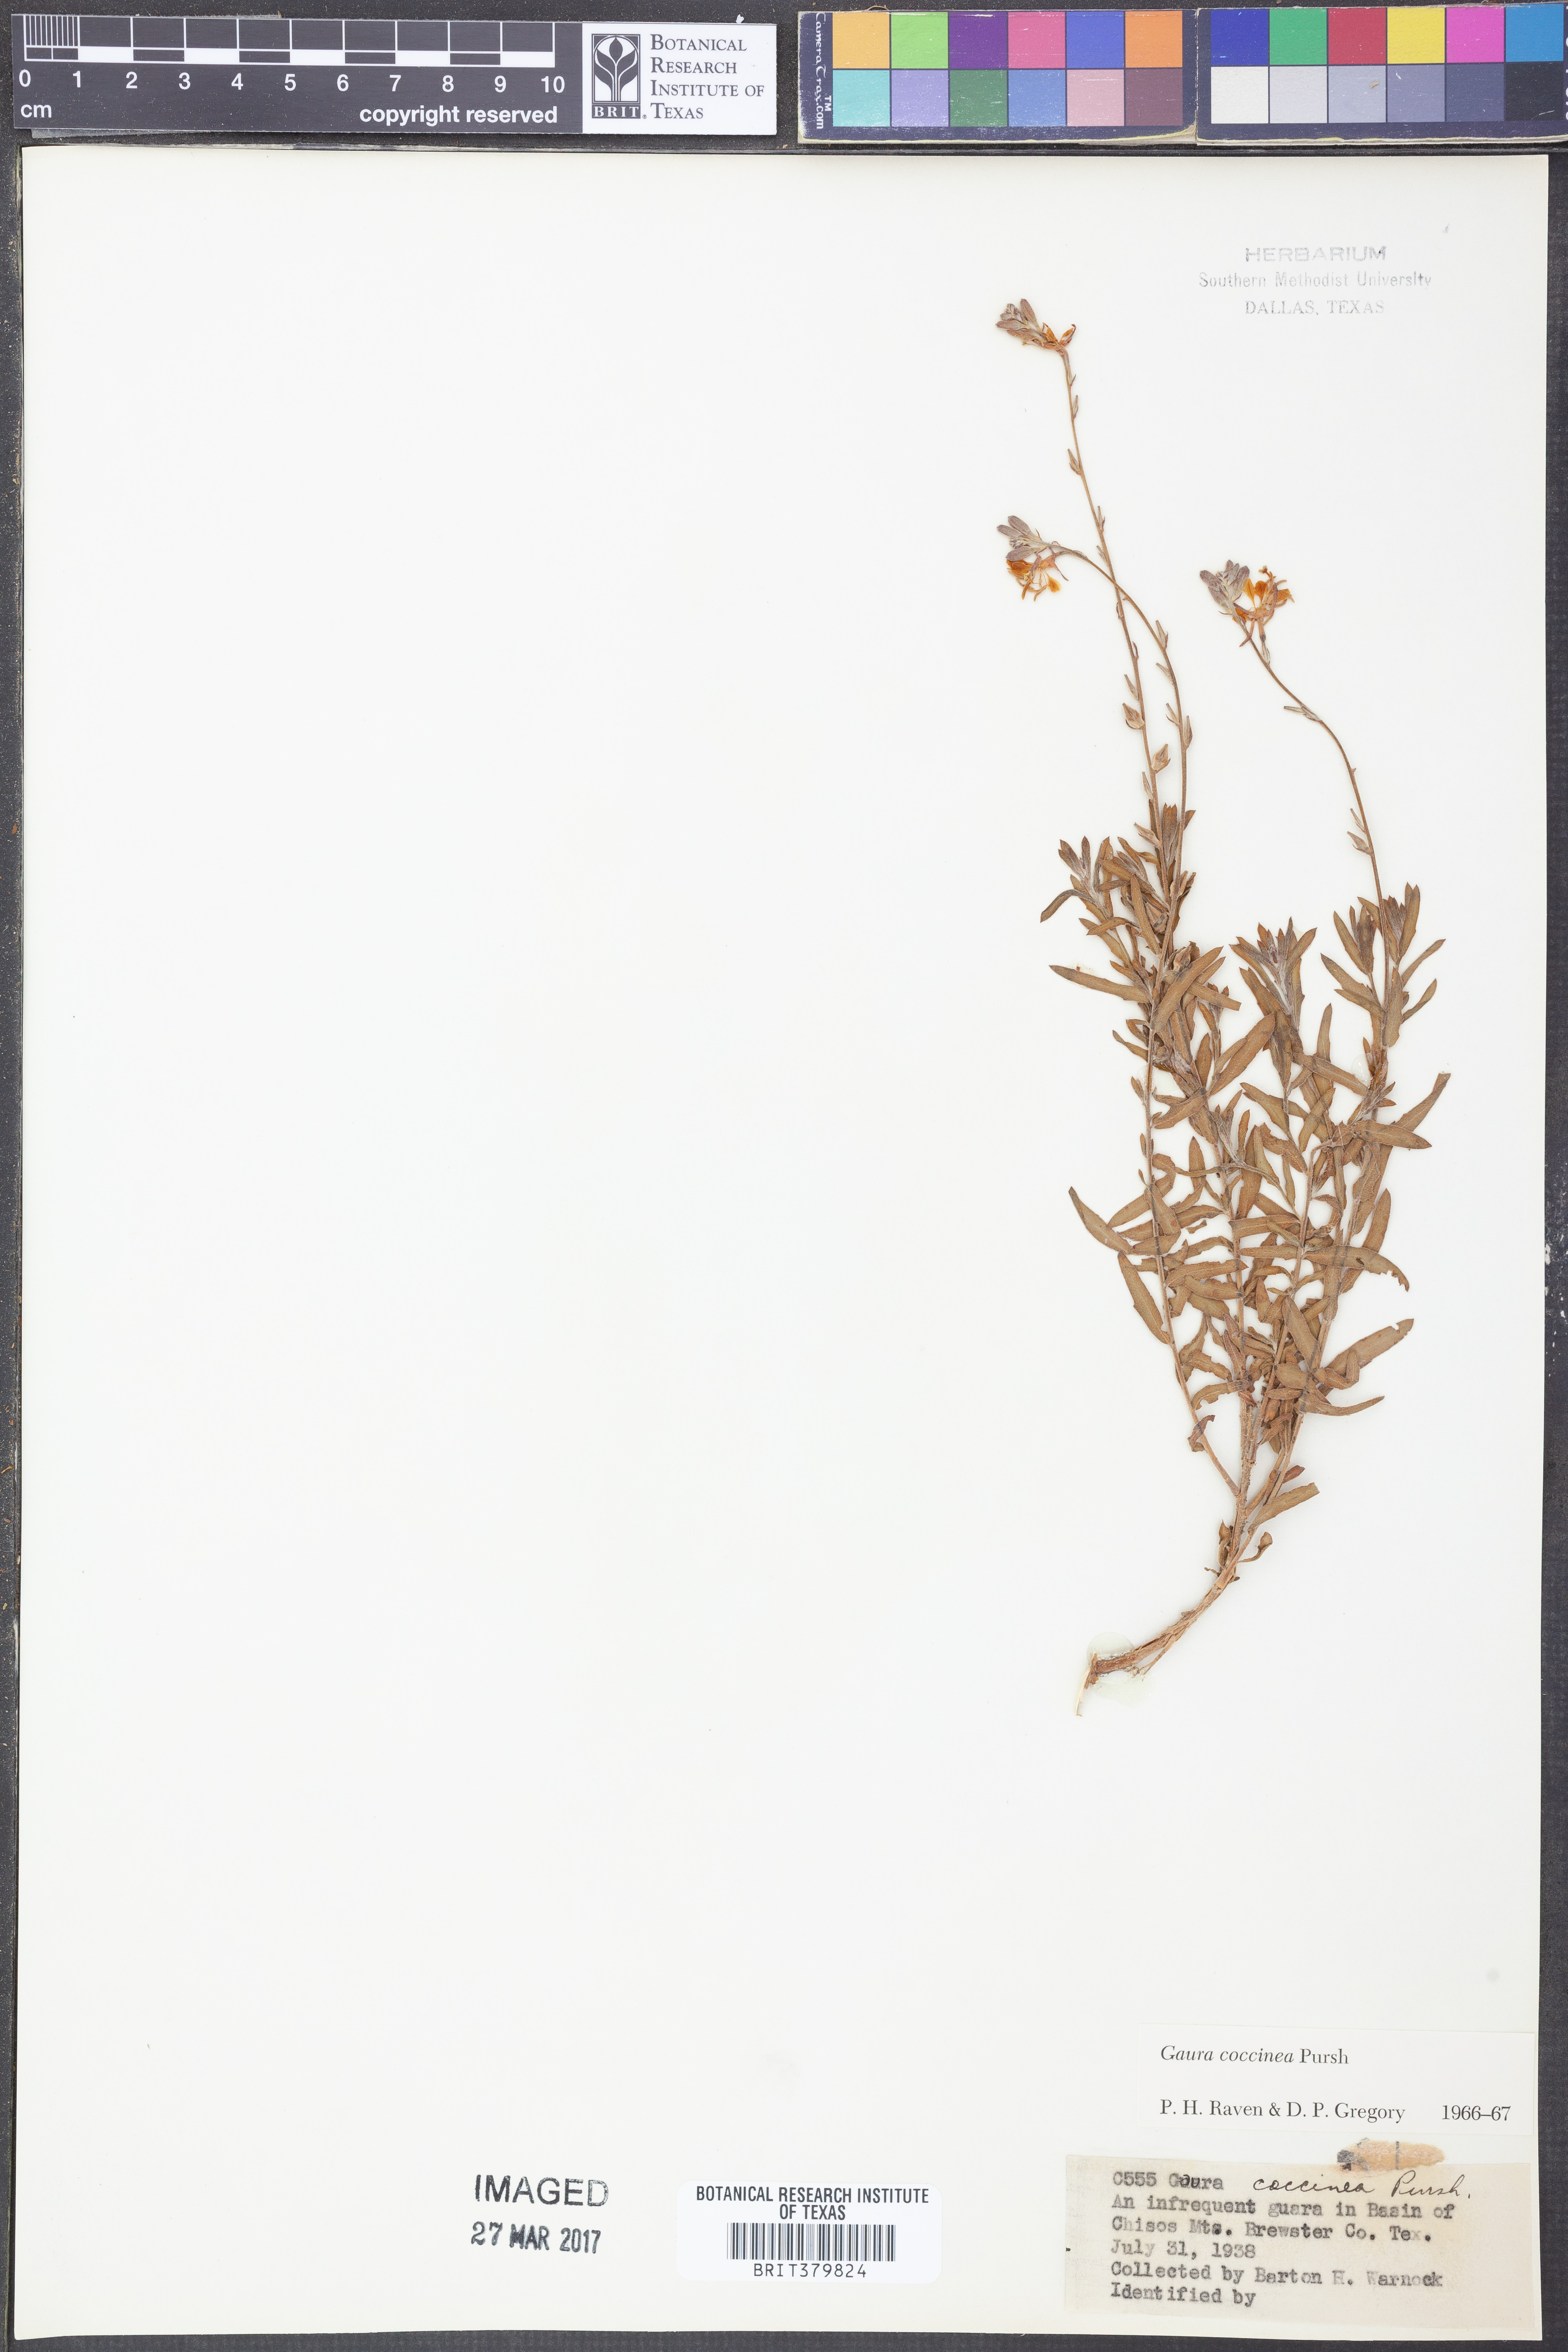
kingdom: Plantae
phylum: Tracheophyta
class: Magnoliopsida
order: Myrtales
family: Onagraceae
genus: Oenothera
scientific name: Oenothera suffrutescens
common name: Scarlet beeblossom
